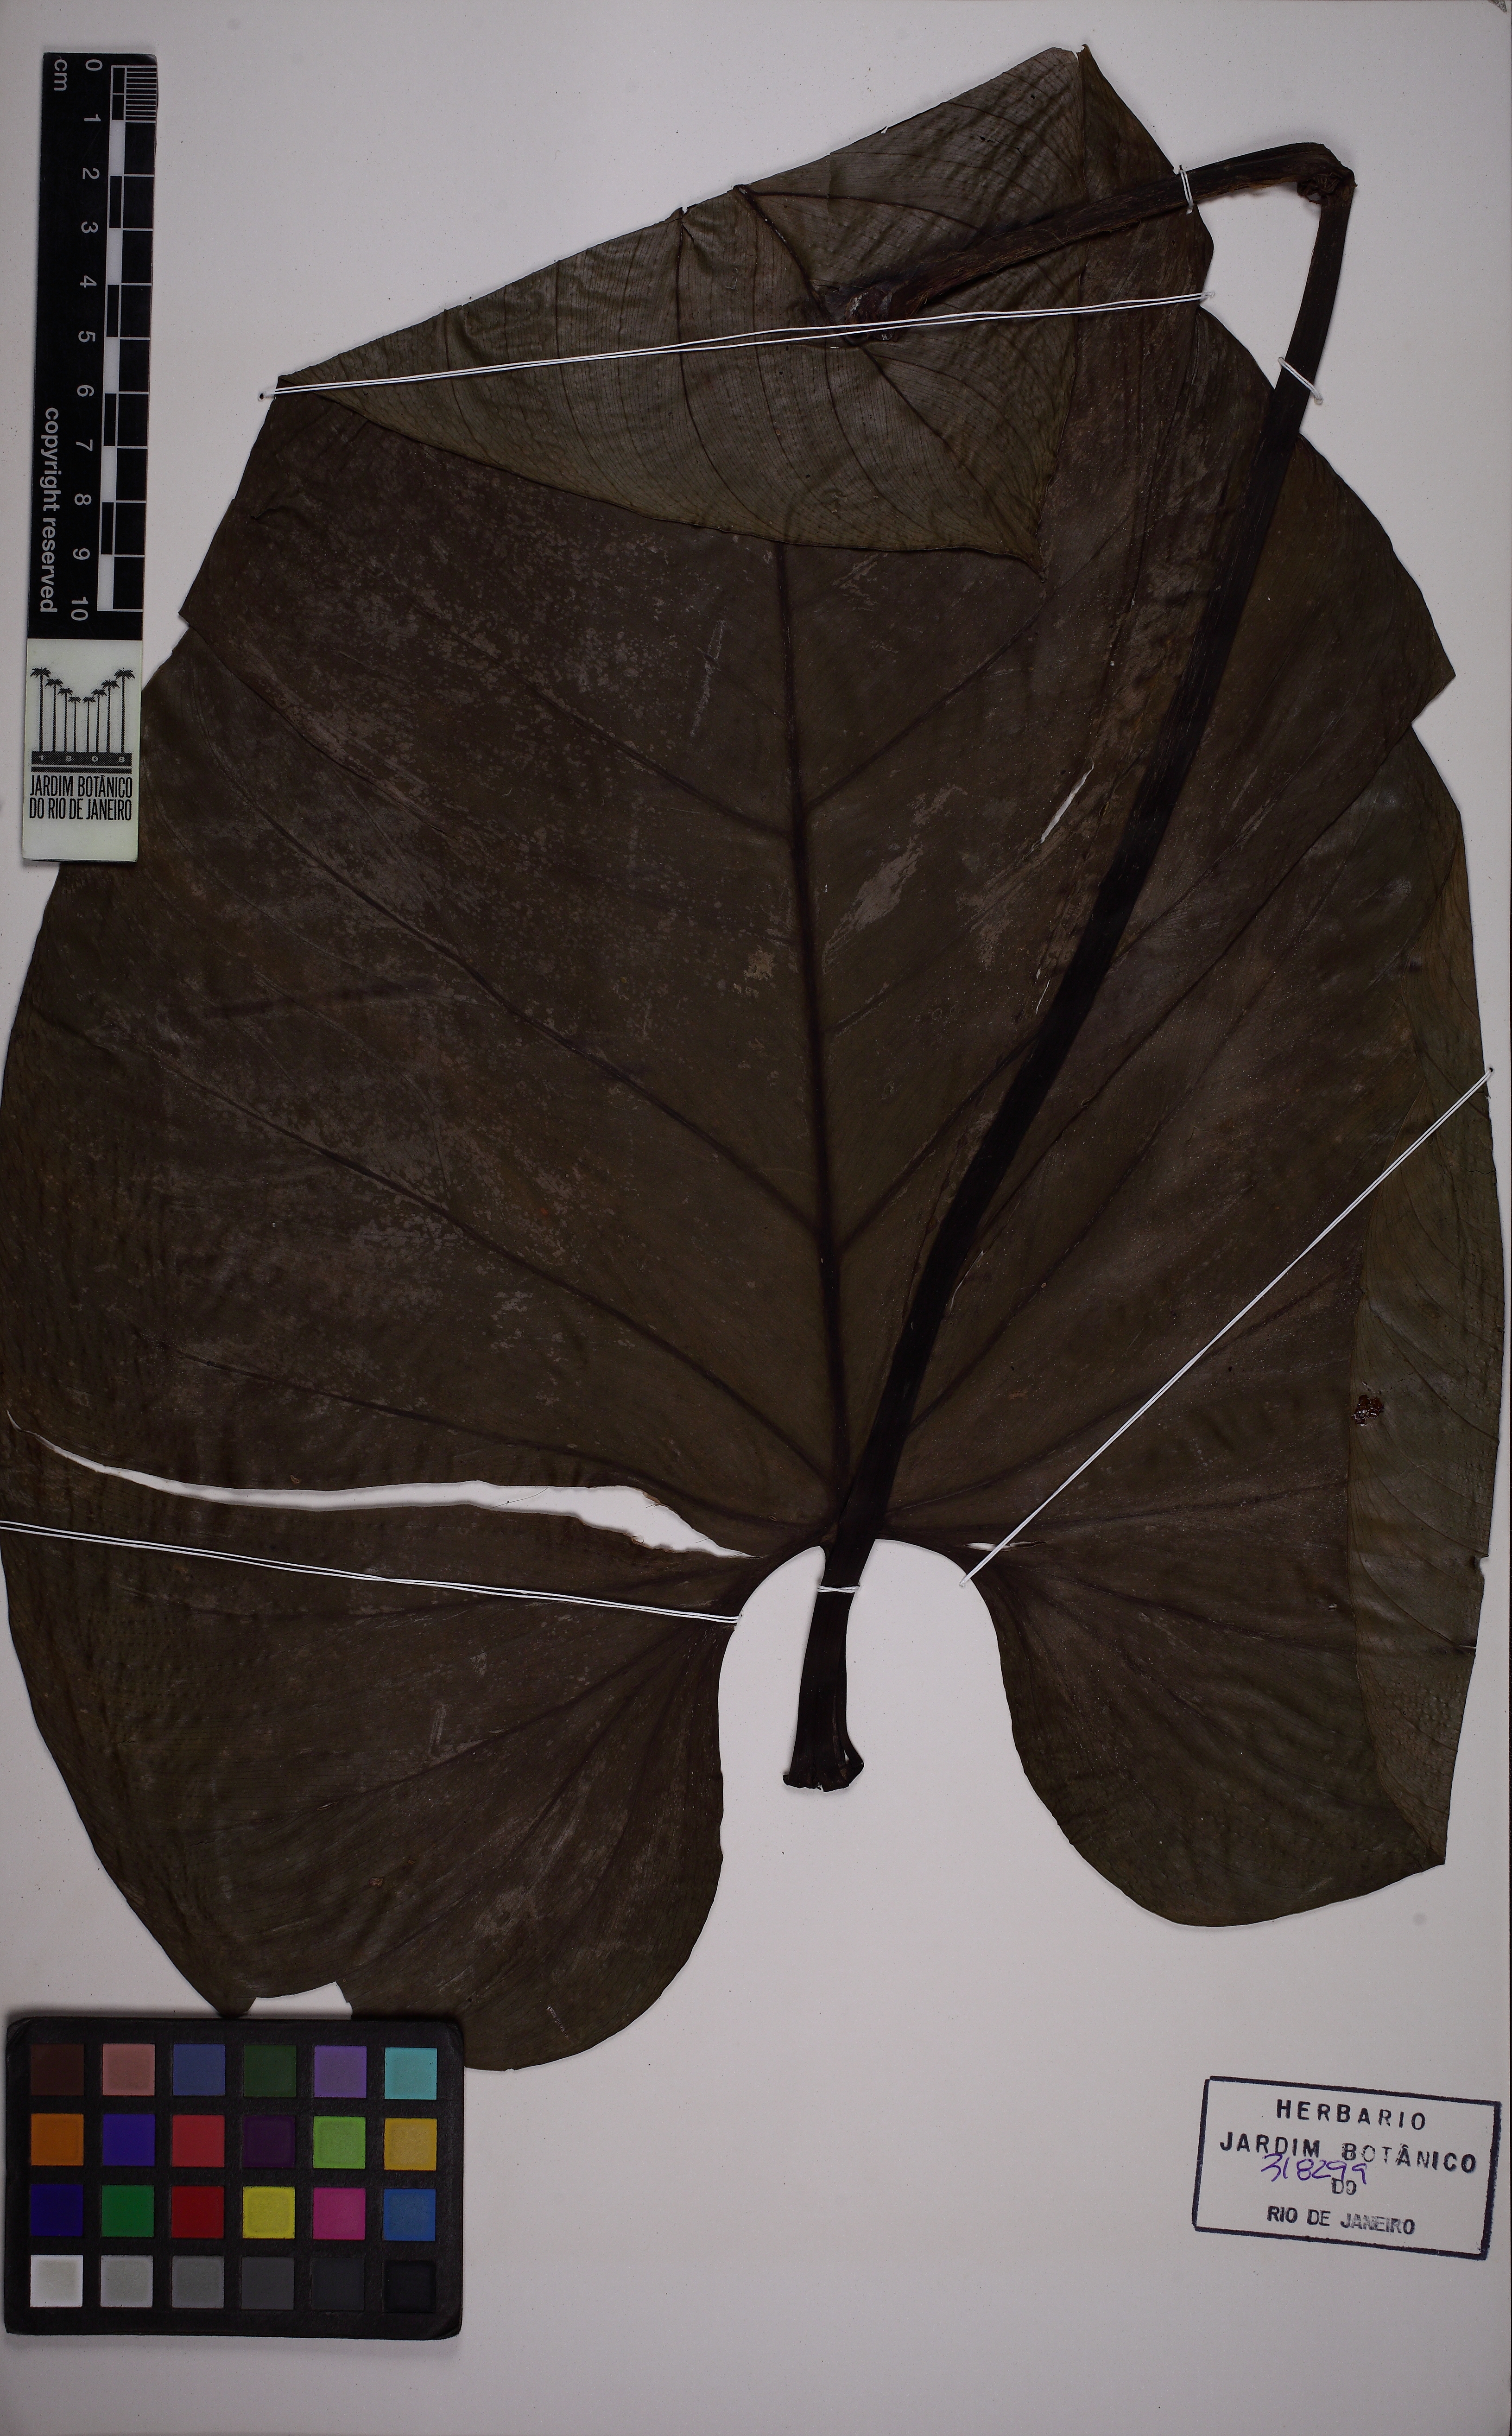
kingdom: Plantae
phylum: Tracheophyta
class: Liliopsida
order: Alismatales
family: Araceae
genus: Philodendron
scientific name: Philodendron ornatum
